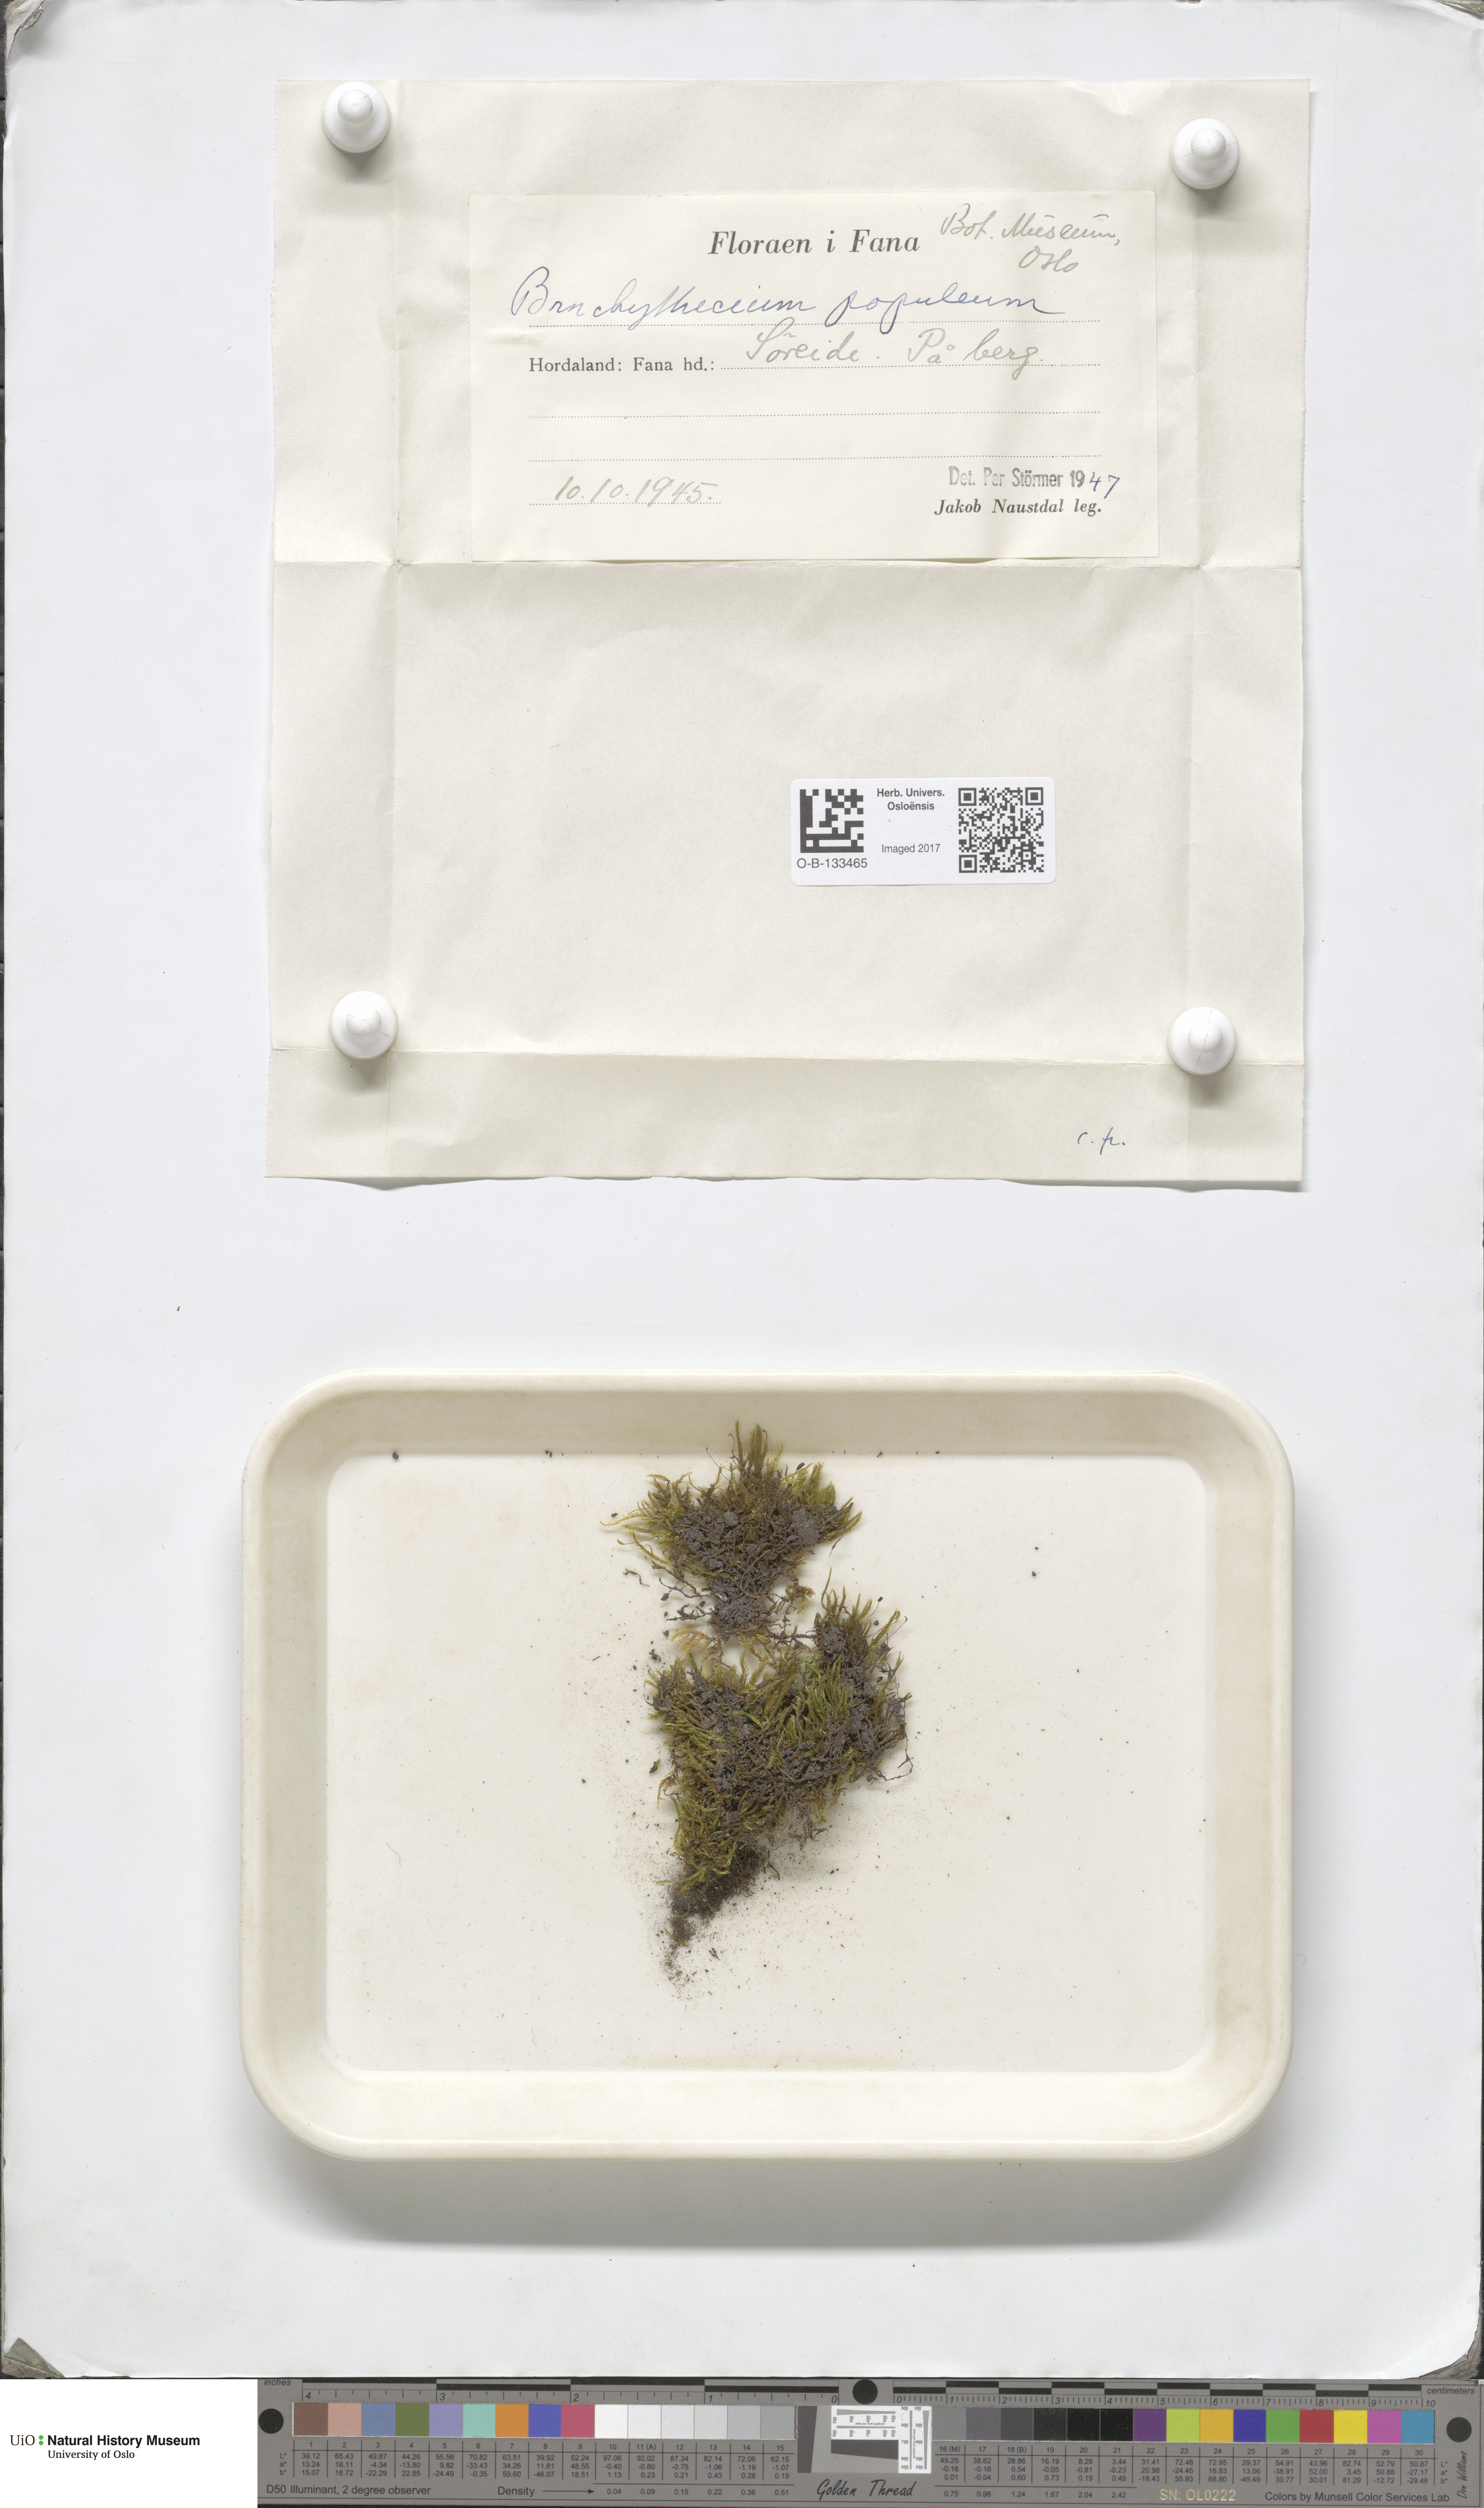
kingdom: Plantae
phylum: Bryophyta
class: Bryopsida
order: Hypnales
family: Brachytheciaceae
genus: Sciuro-hypnum
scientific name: Sciuro-hypnum plumosum
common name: Rusty feather-moss
